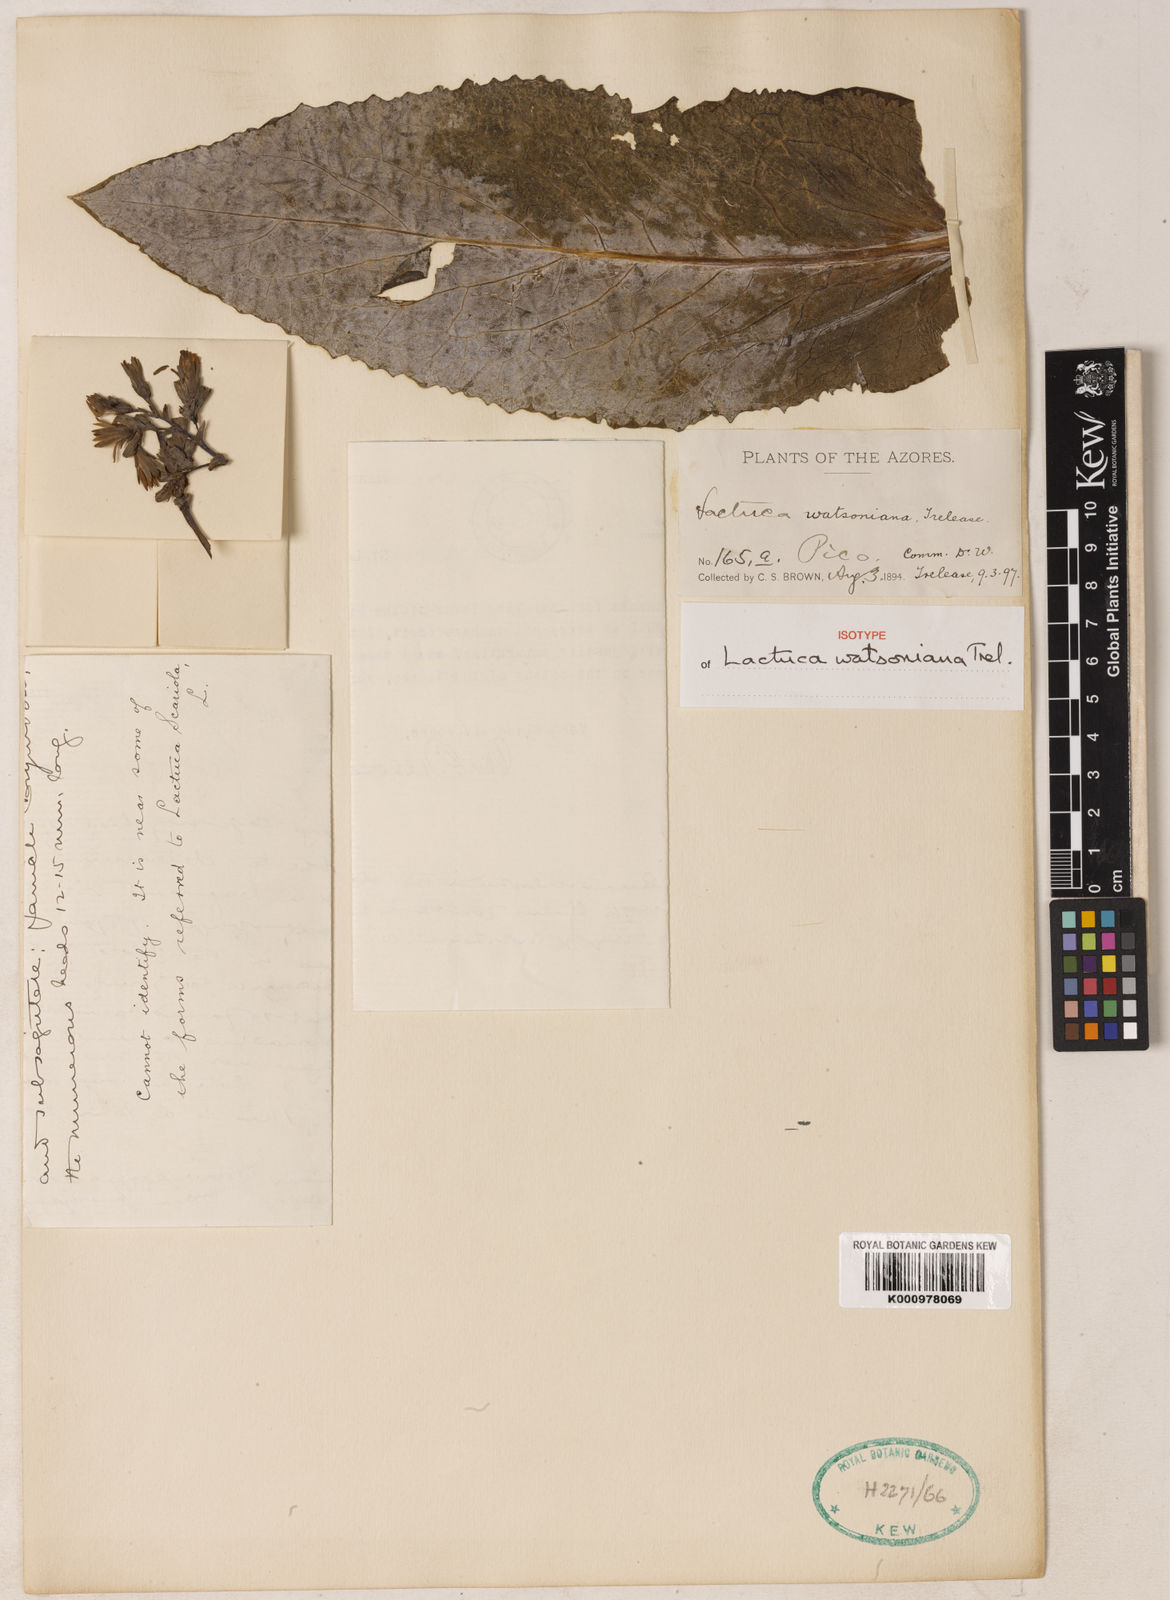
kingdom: Plantae
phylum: Tracheophyta
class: Magnoliopsida
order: Asterales
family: Asteraceae
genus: Lactuca
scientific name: Lactuca watsoniana
